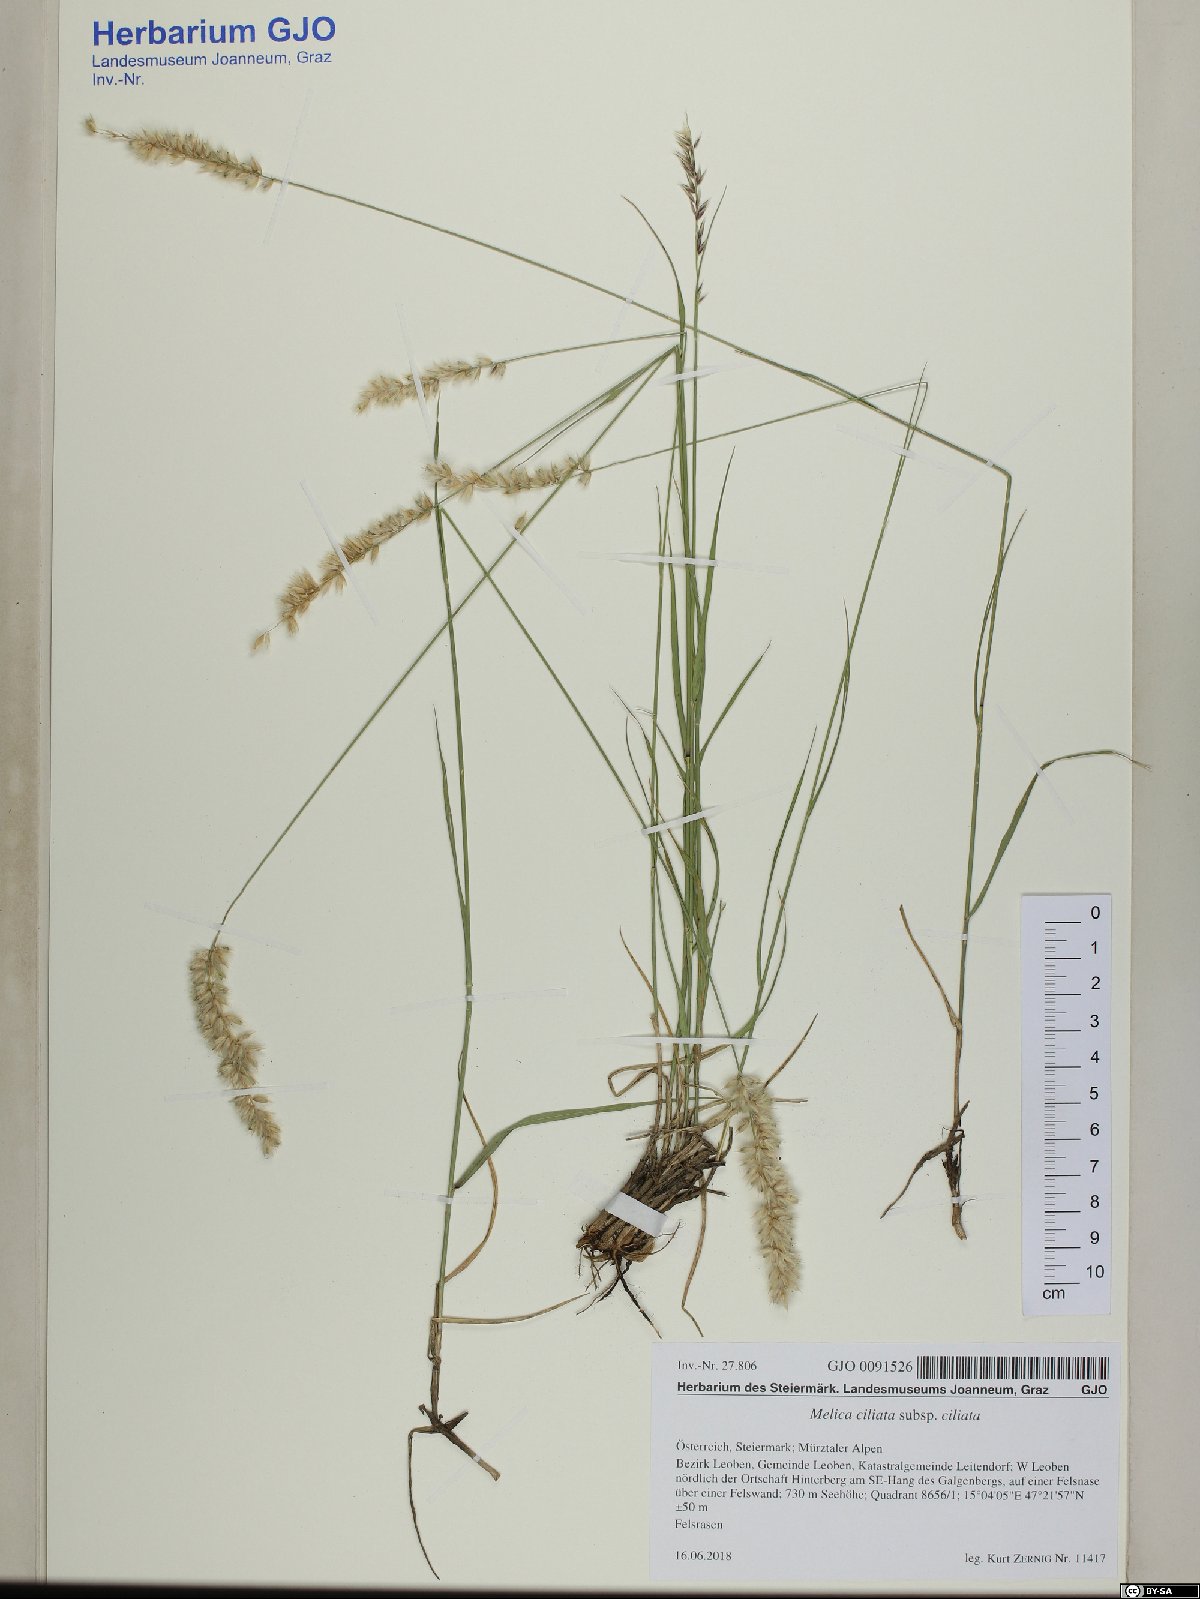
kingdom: Plantae
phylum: Tracheophyta
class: Liliopsida
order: Poales
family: Poaceae
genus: Melica
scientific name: Melica ciliata
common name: Hairy melicgrass
